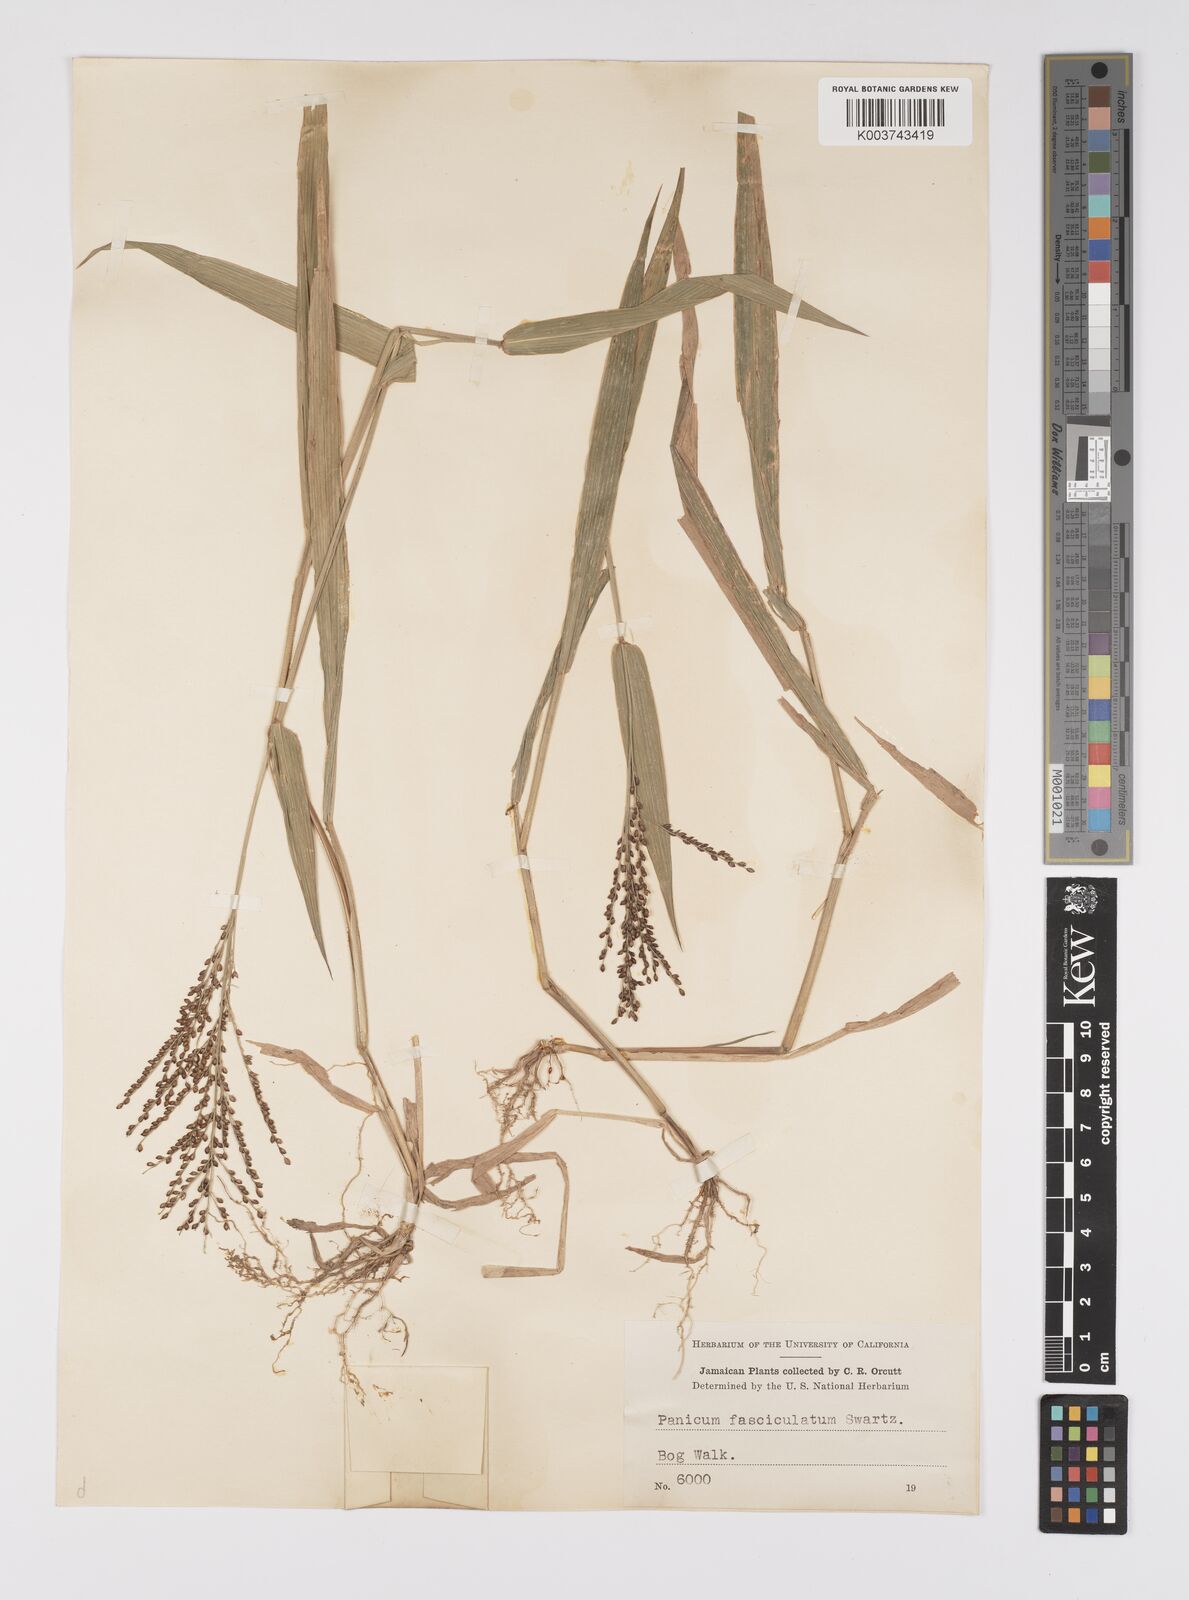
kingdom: Plantae
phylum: Tracheophyta
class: Liliopsida
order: Poales
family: Poaceae
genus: Urochloa
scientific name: Urochloa fusca
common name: Browntop signal grass
